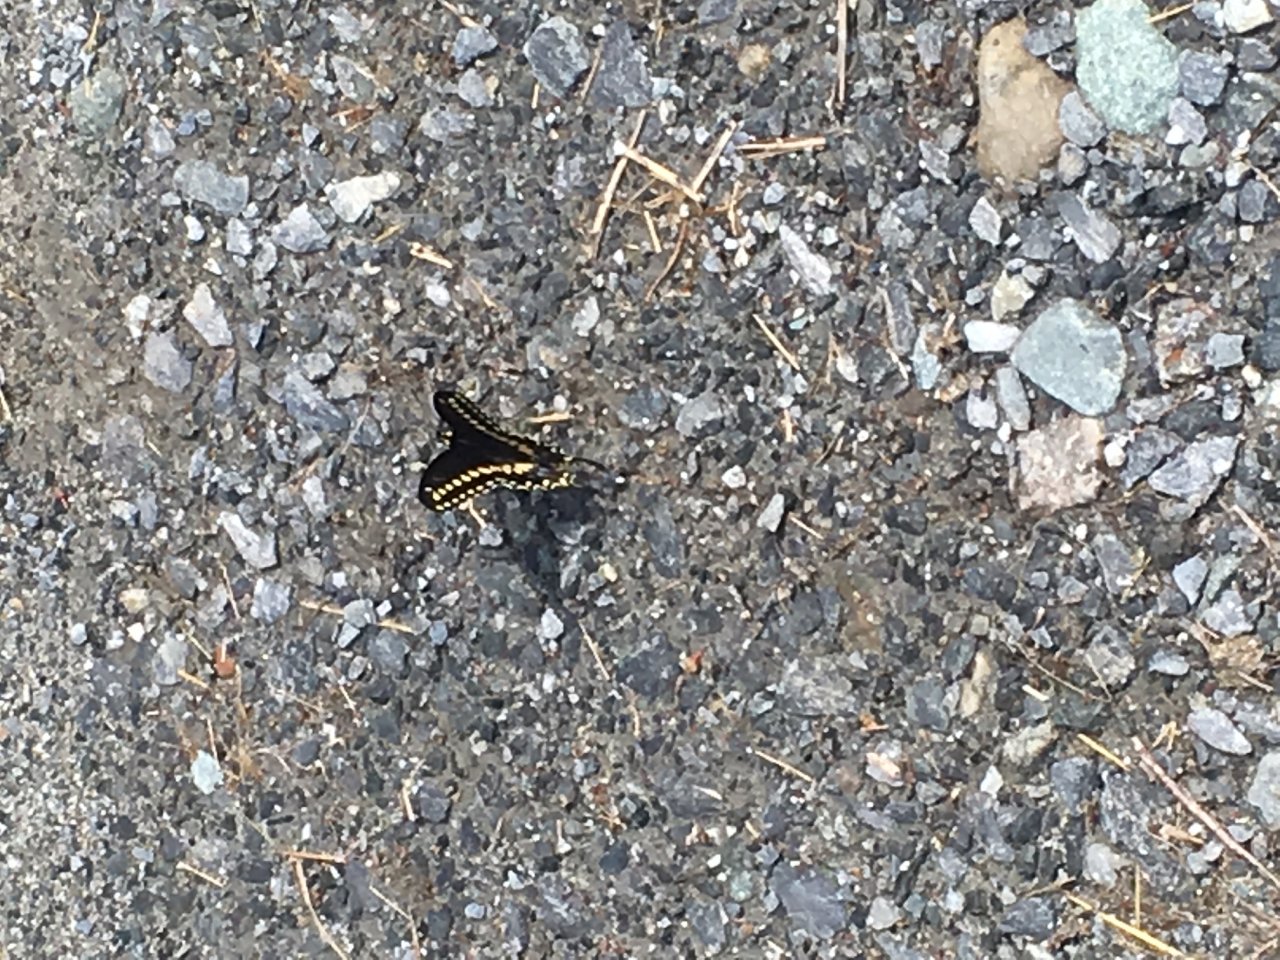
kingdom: Animalia
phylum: Arthropoda
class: Insecta
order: Lepidoptera
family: Papilionidae
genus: Papilio
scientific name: Papilio polyxenes
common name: Black Swallowtail
